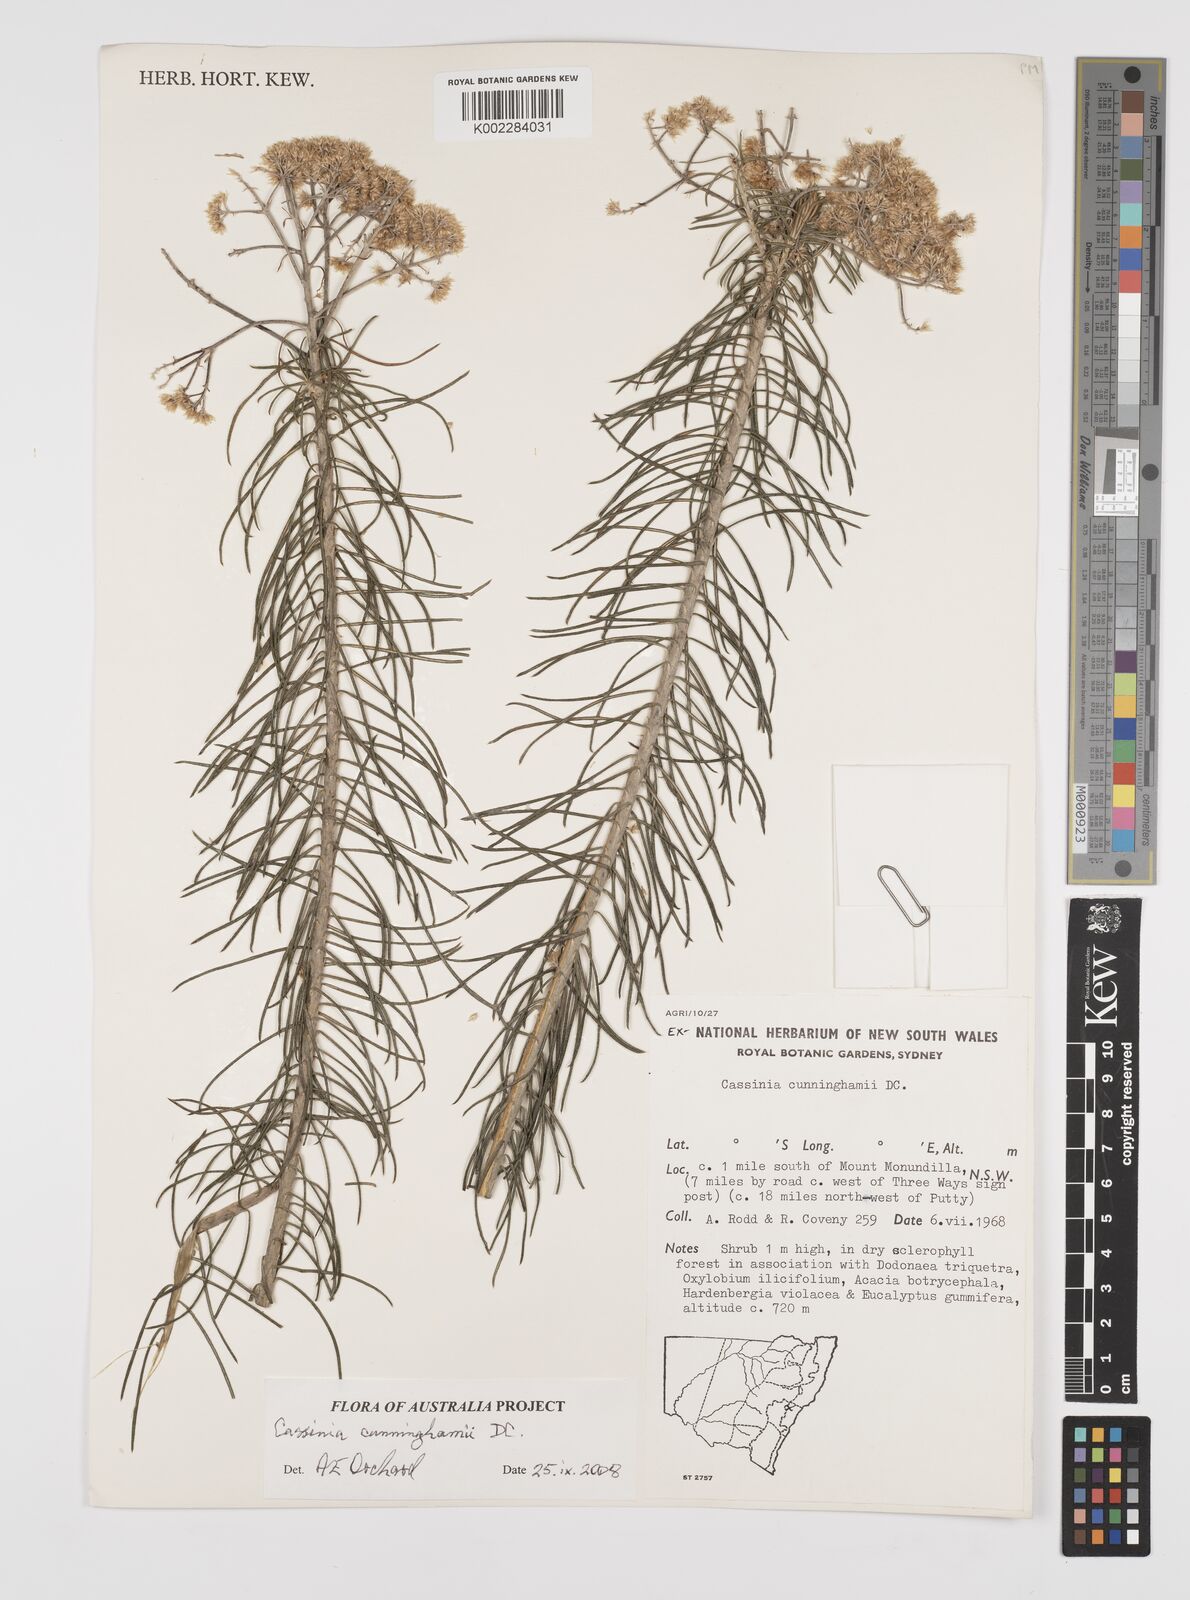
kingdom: Plantae
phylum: Tracheophyta
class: Magnoliopsida
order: Asterales
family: Asteraceae
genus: Cassinia
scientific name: Cassinia cunninghamii
